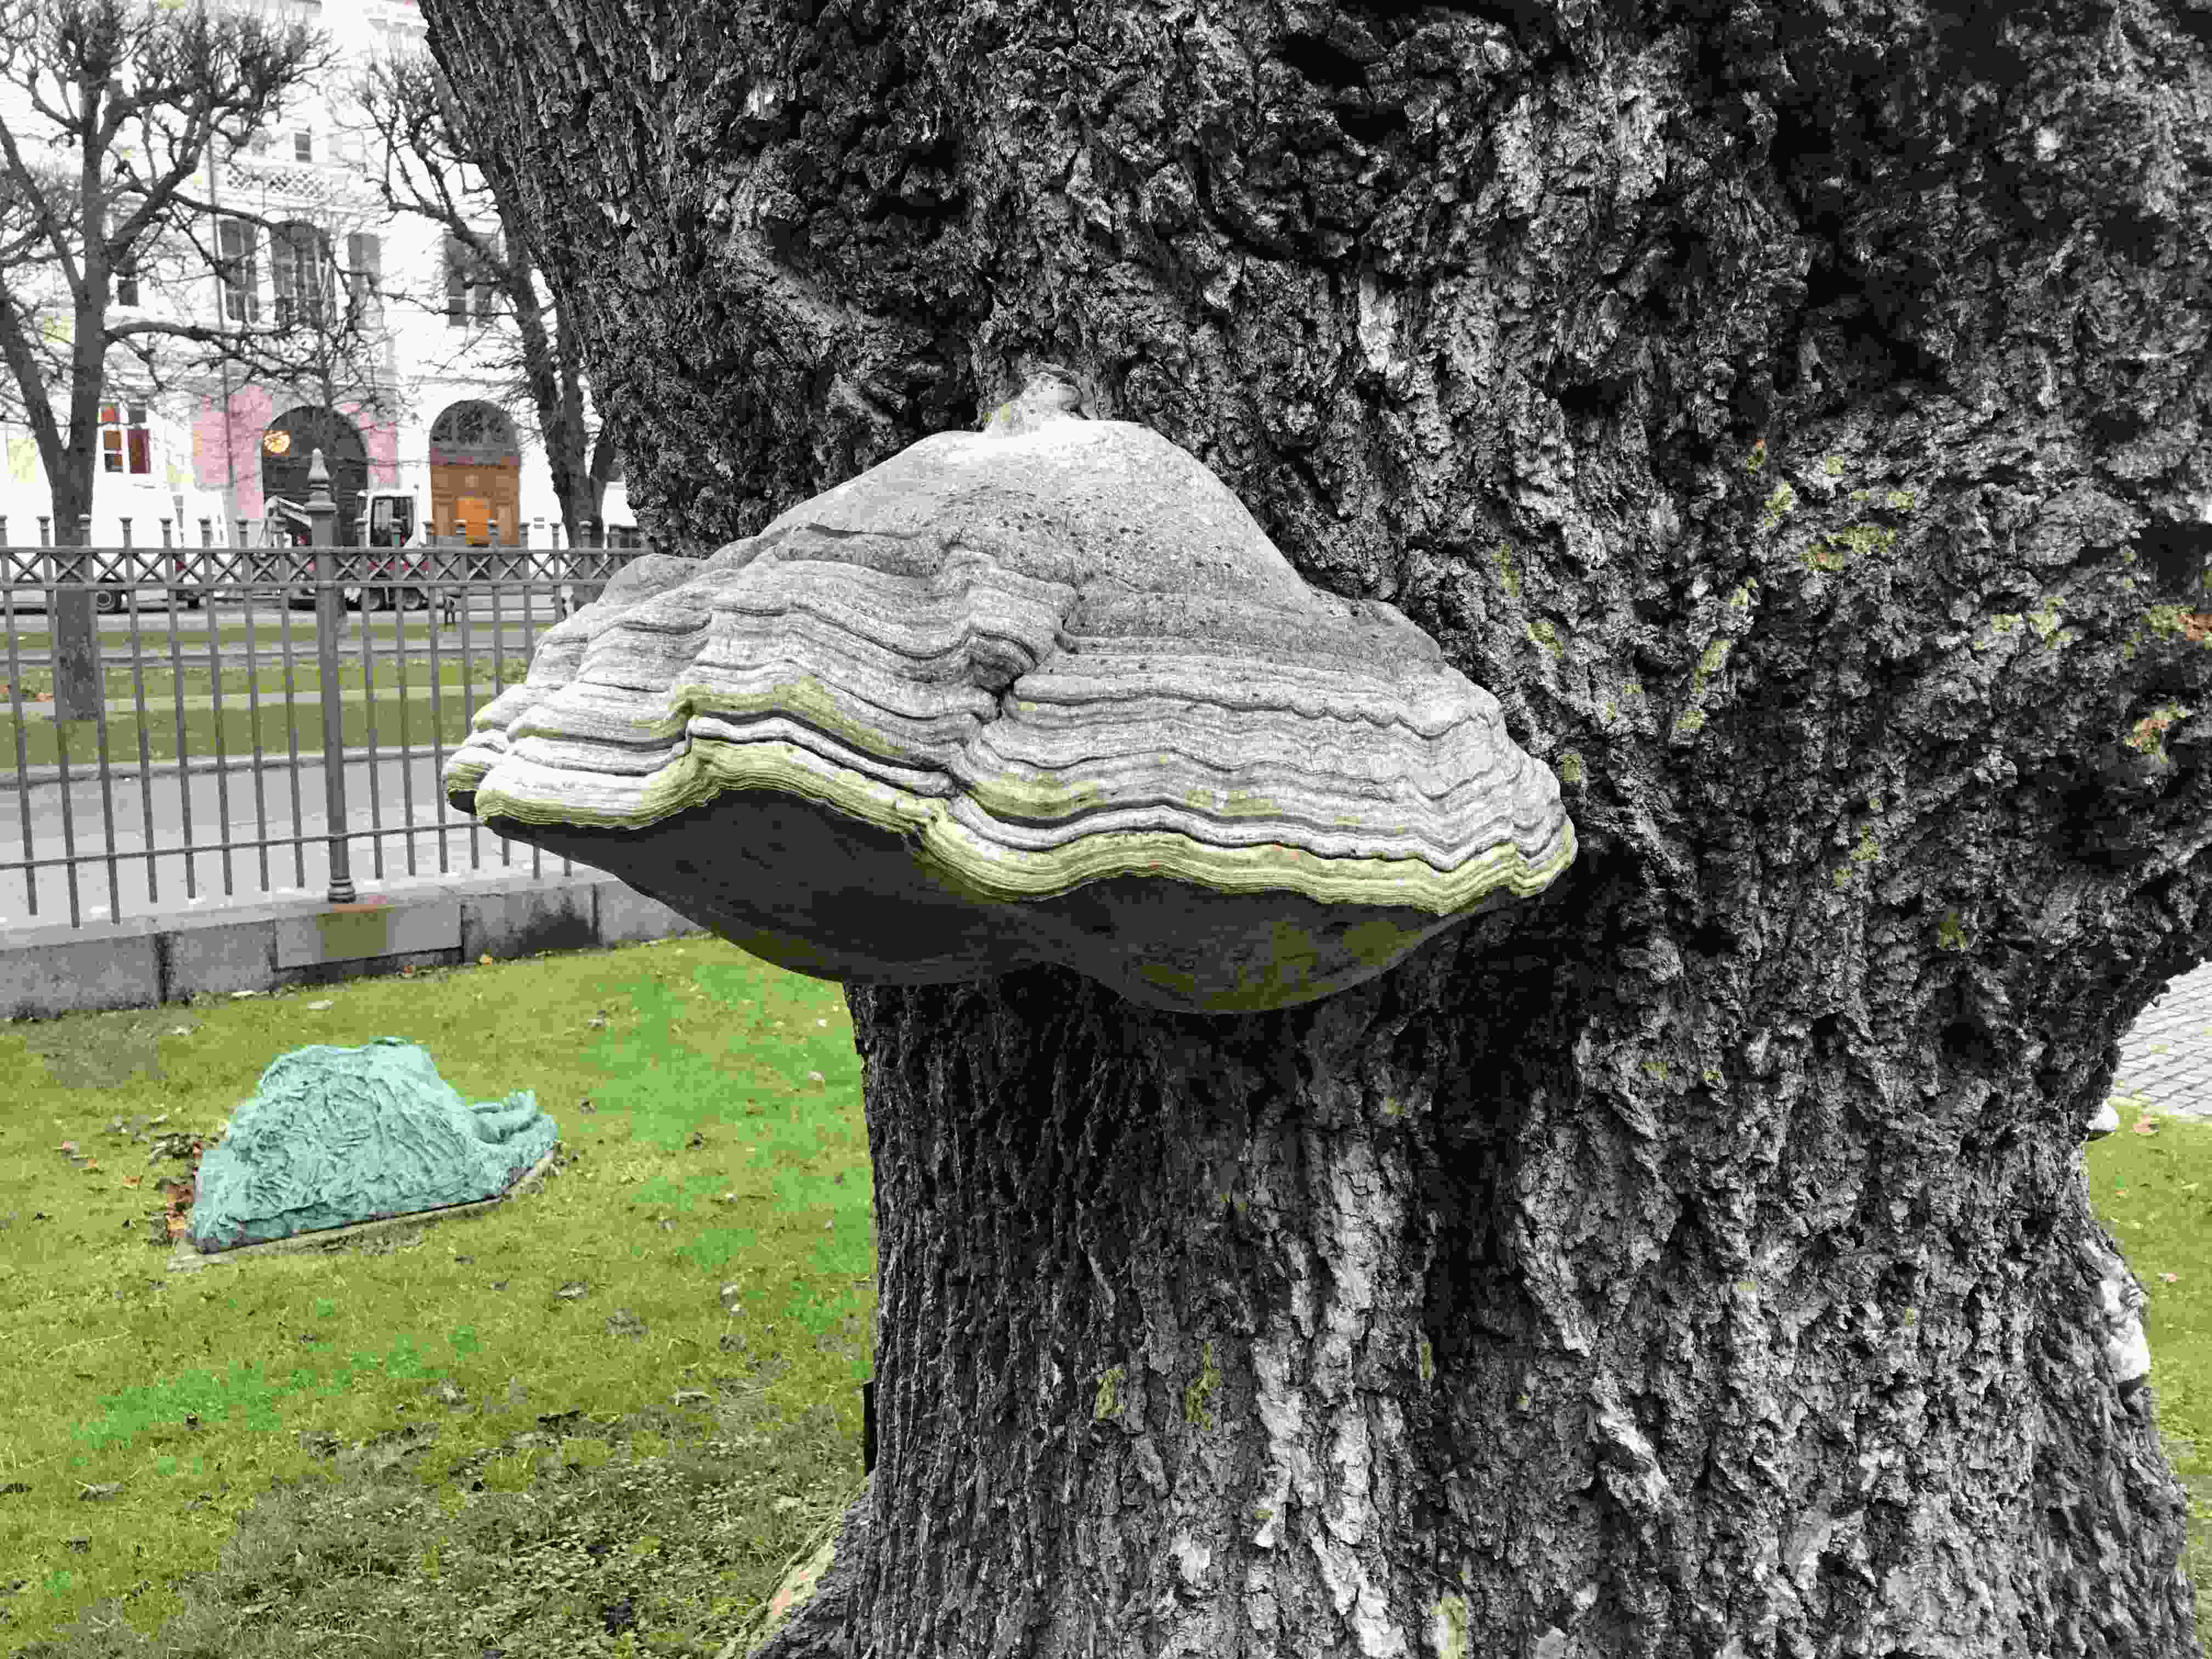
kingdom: Fungi
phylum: Basidiomycota
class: Agaricomycetes
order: Polyporales
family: Polyporaceae
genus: Fomes
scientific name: Fomes fomentarius
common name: tøndersvamp
